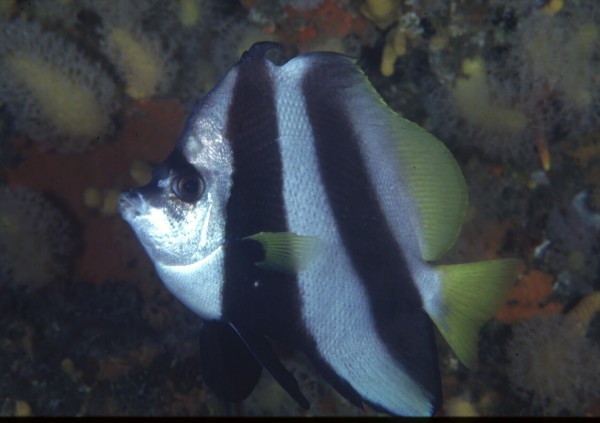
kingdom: Animalia
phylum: Chordata
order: Perciformes
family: Chaetodontidae
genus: Heniochus
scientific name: Heniochus acuminatus
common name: Pennant coralfish
